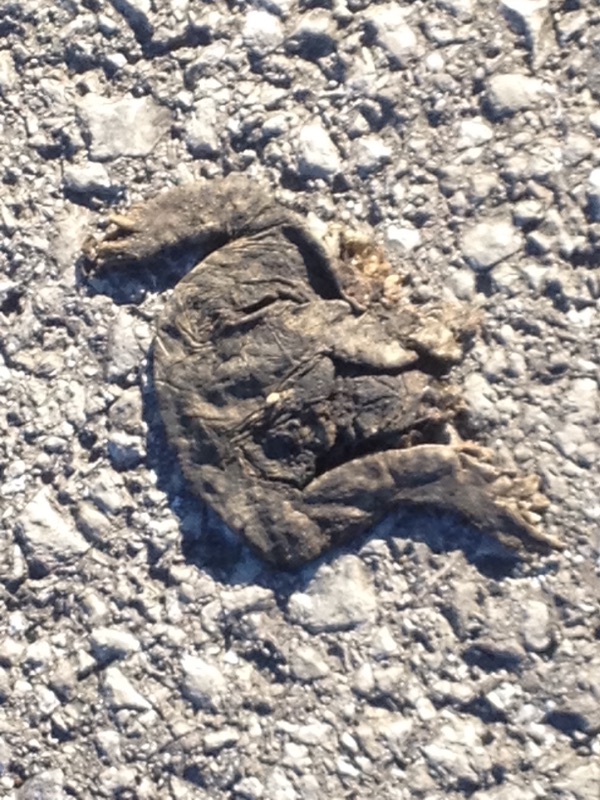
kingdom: Animalia
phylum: Chordata
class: Amphibia
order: Anura
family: Bufonidae
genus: Bufo
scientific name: Bufo bufo
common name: Common toad
